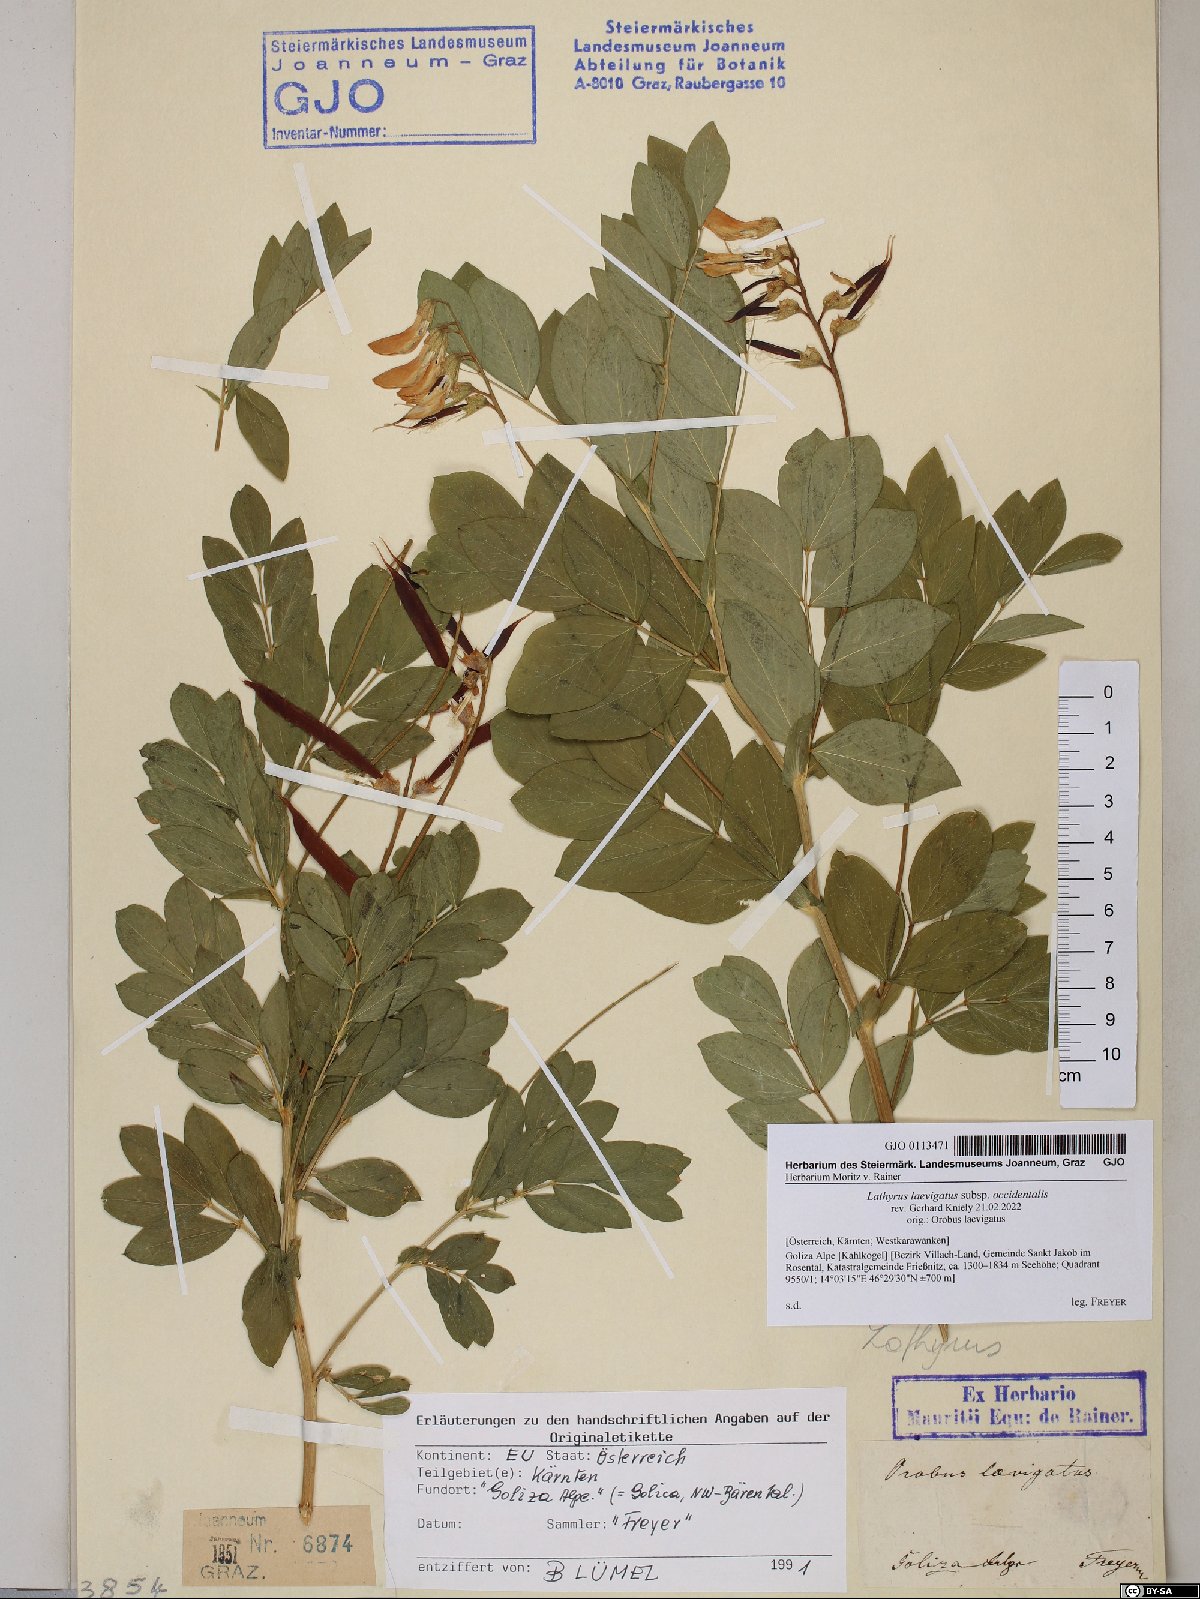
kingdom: Plantae
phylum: Tracheophyta
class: Magnoliopsida
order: Fabales
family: Fabaceae
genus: Lathyrus
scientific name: Lathyrus laevigatus
